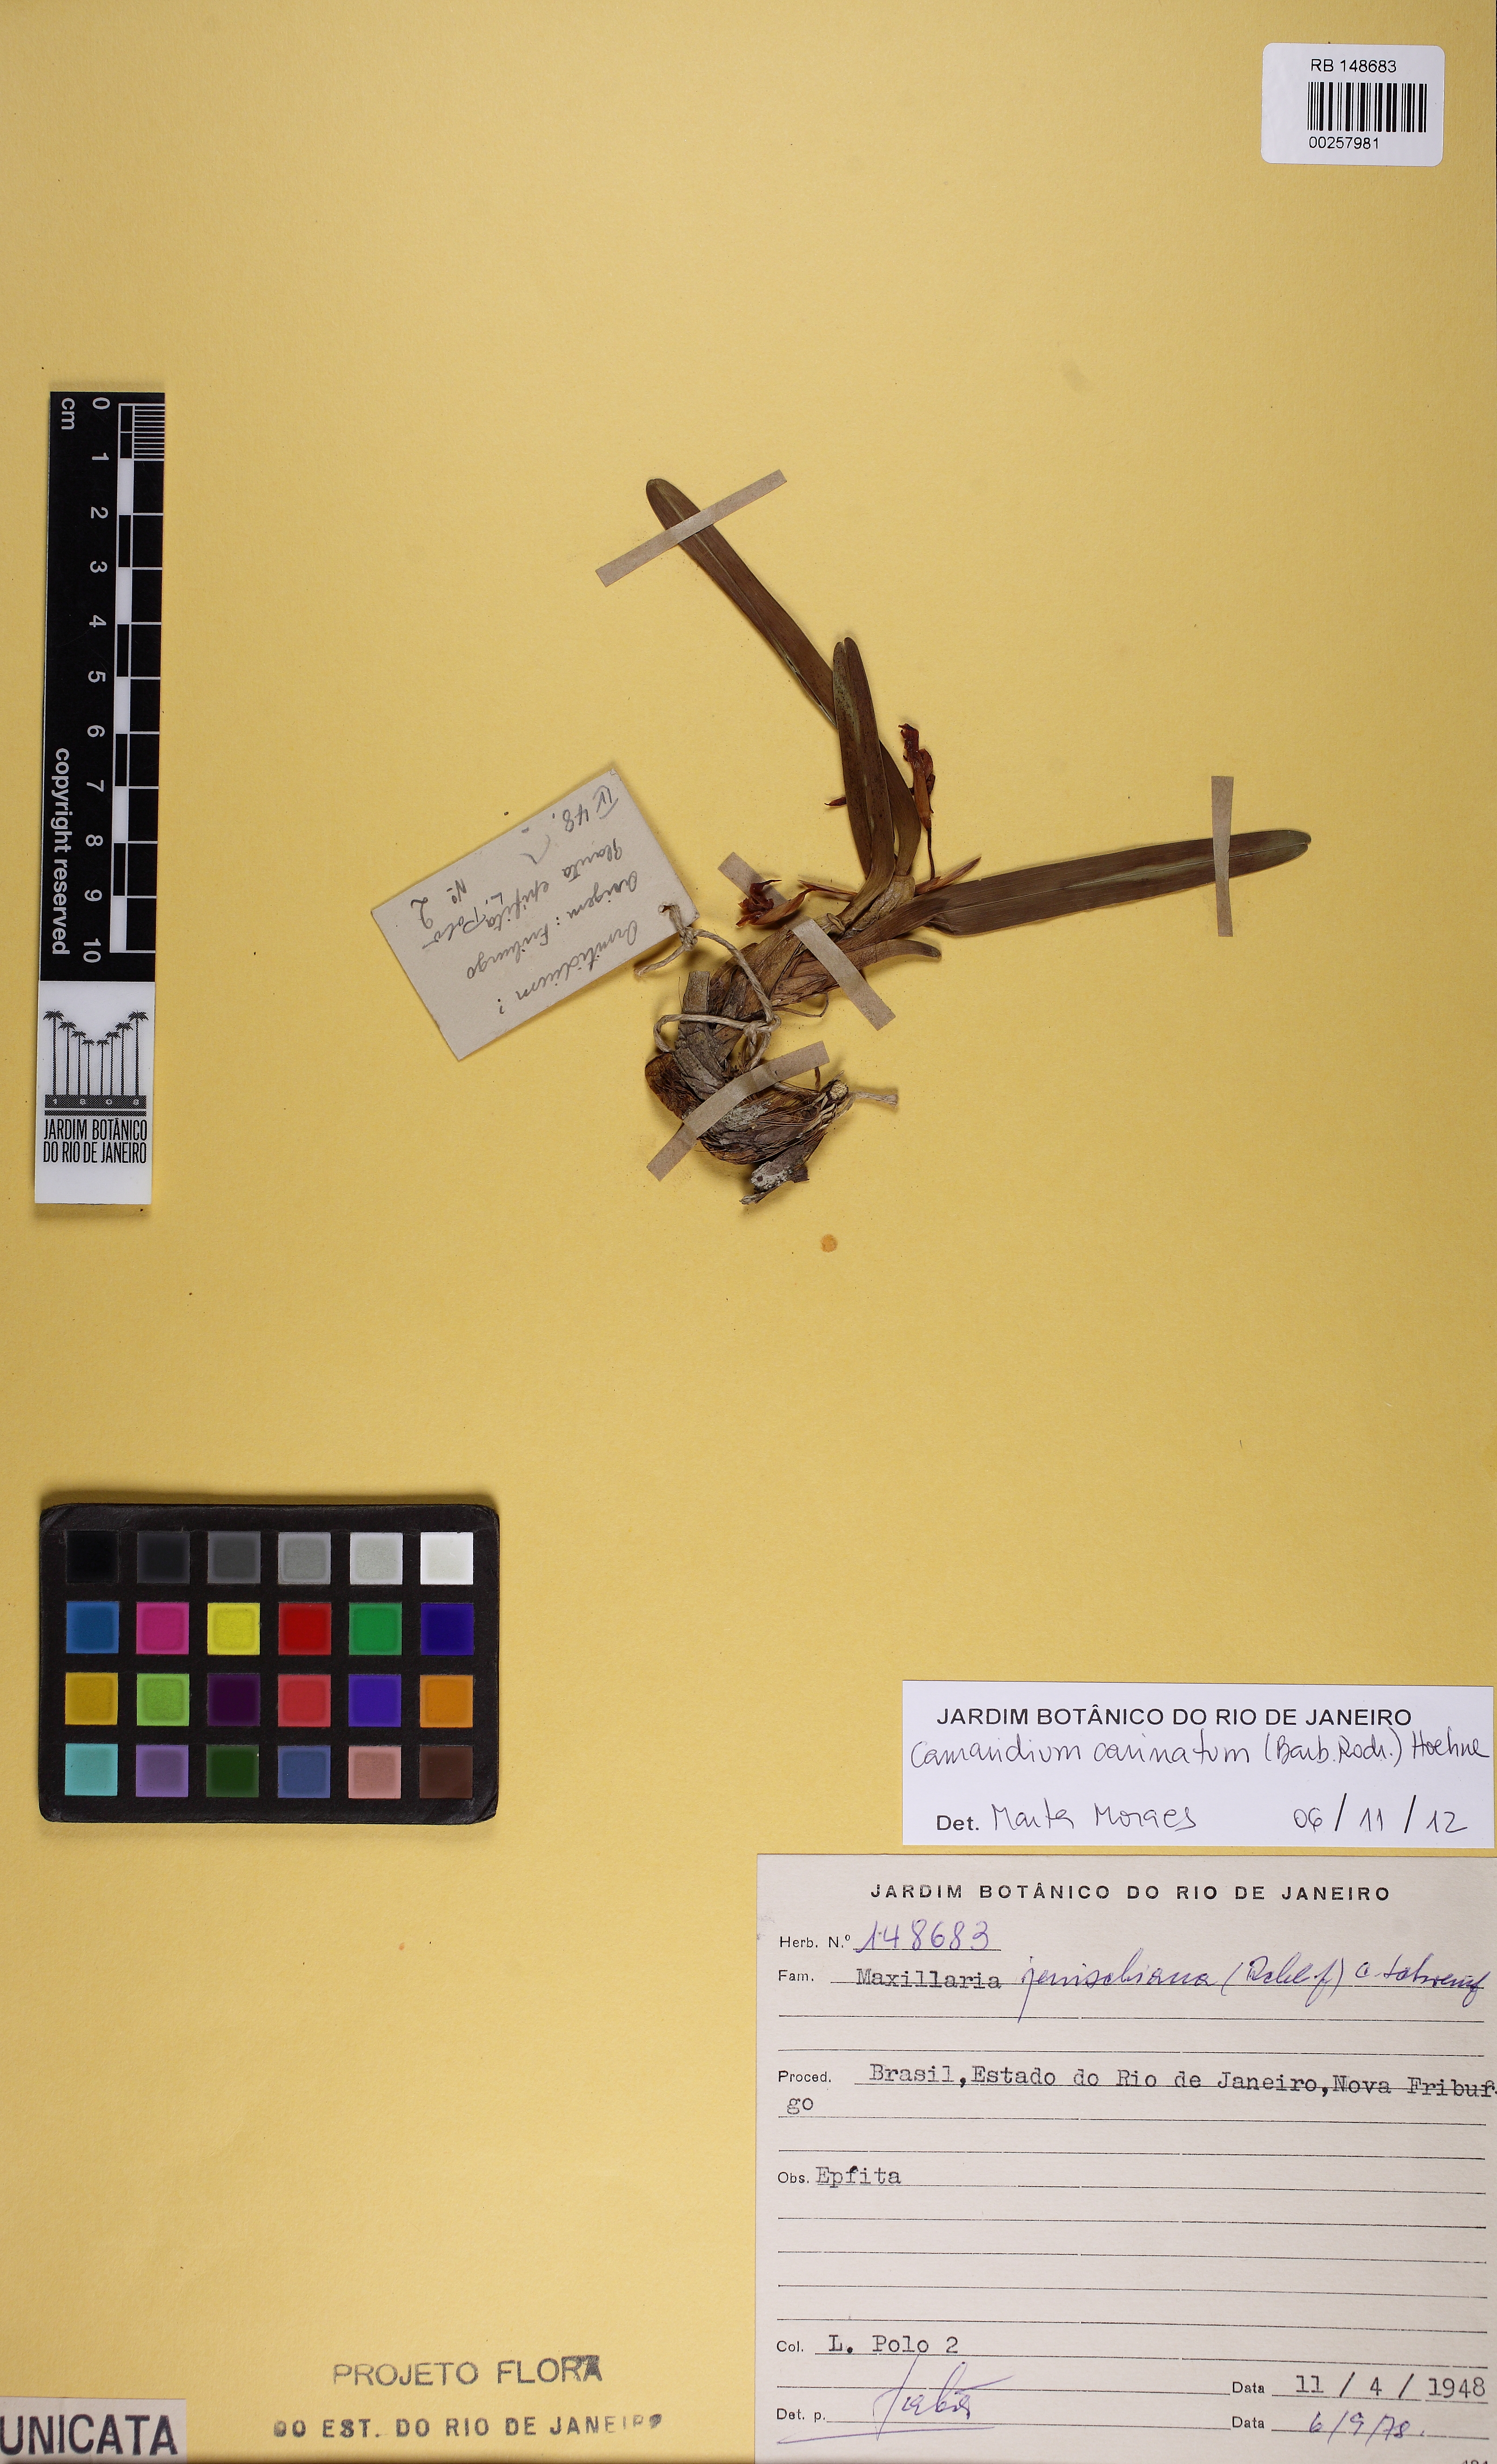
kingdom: Plantae
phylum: Tracheophyta
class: Liliopsida
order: Asparagales
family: Orchidaceae
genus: Maxillaria
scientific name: Maxillaria imbricata
